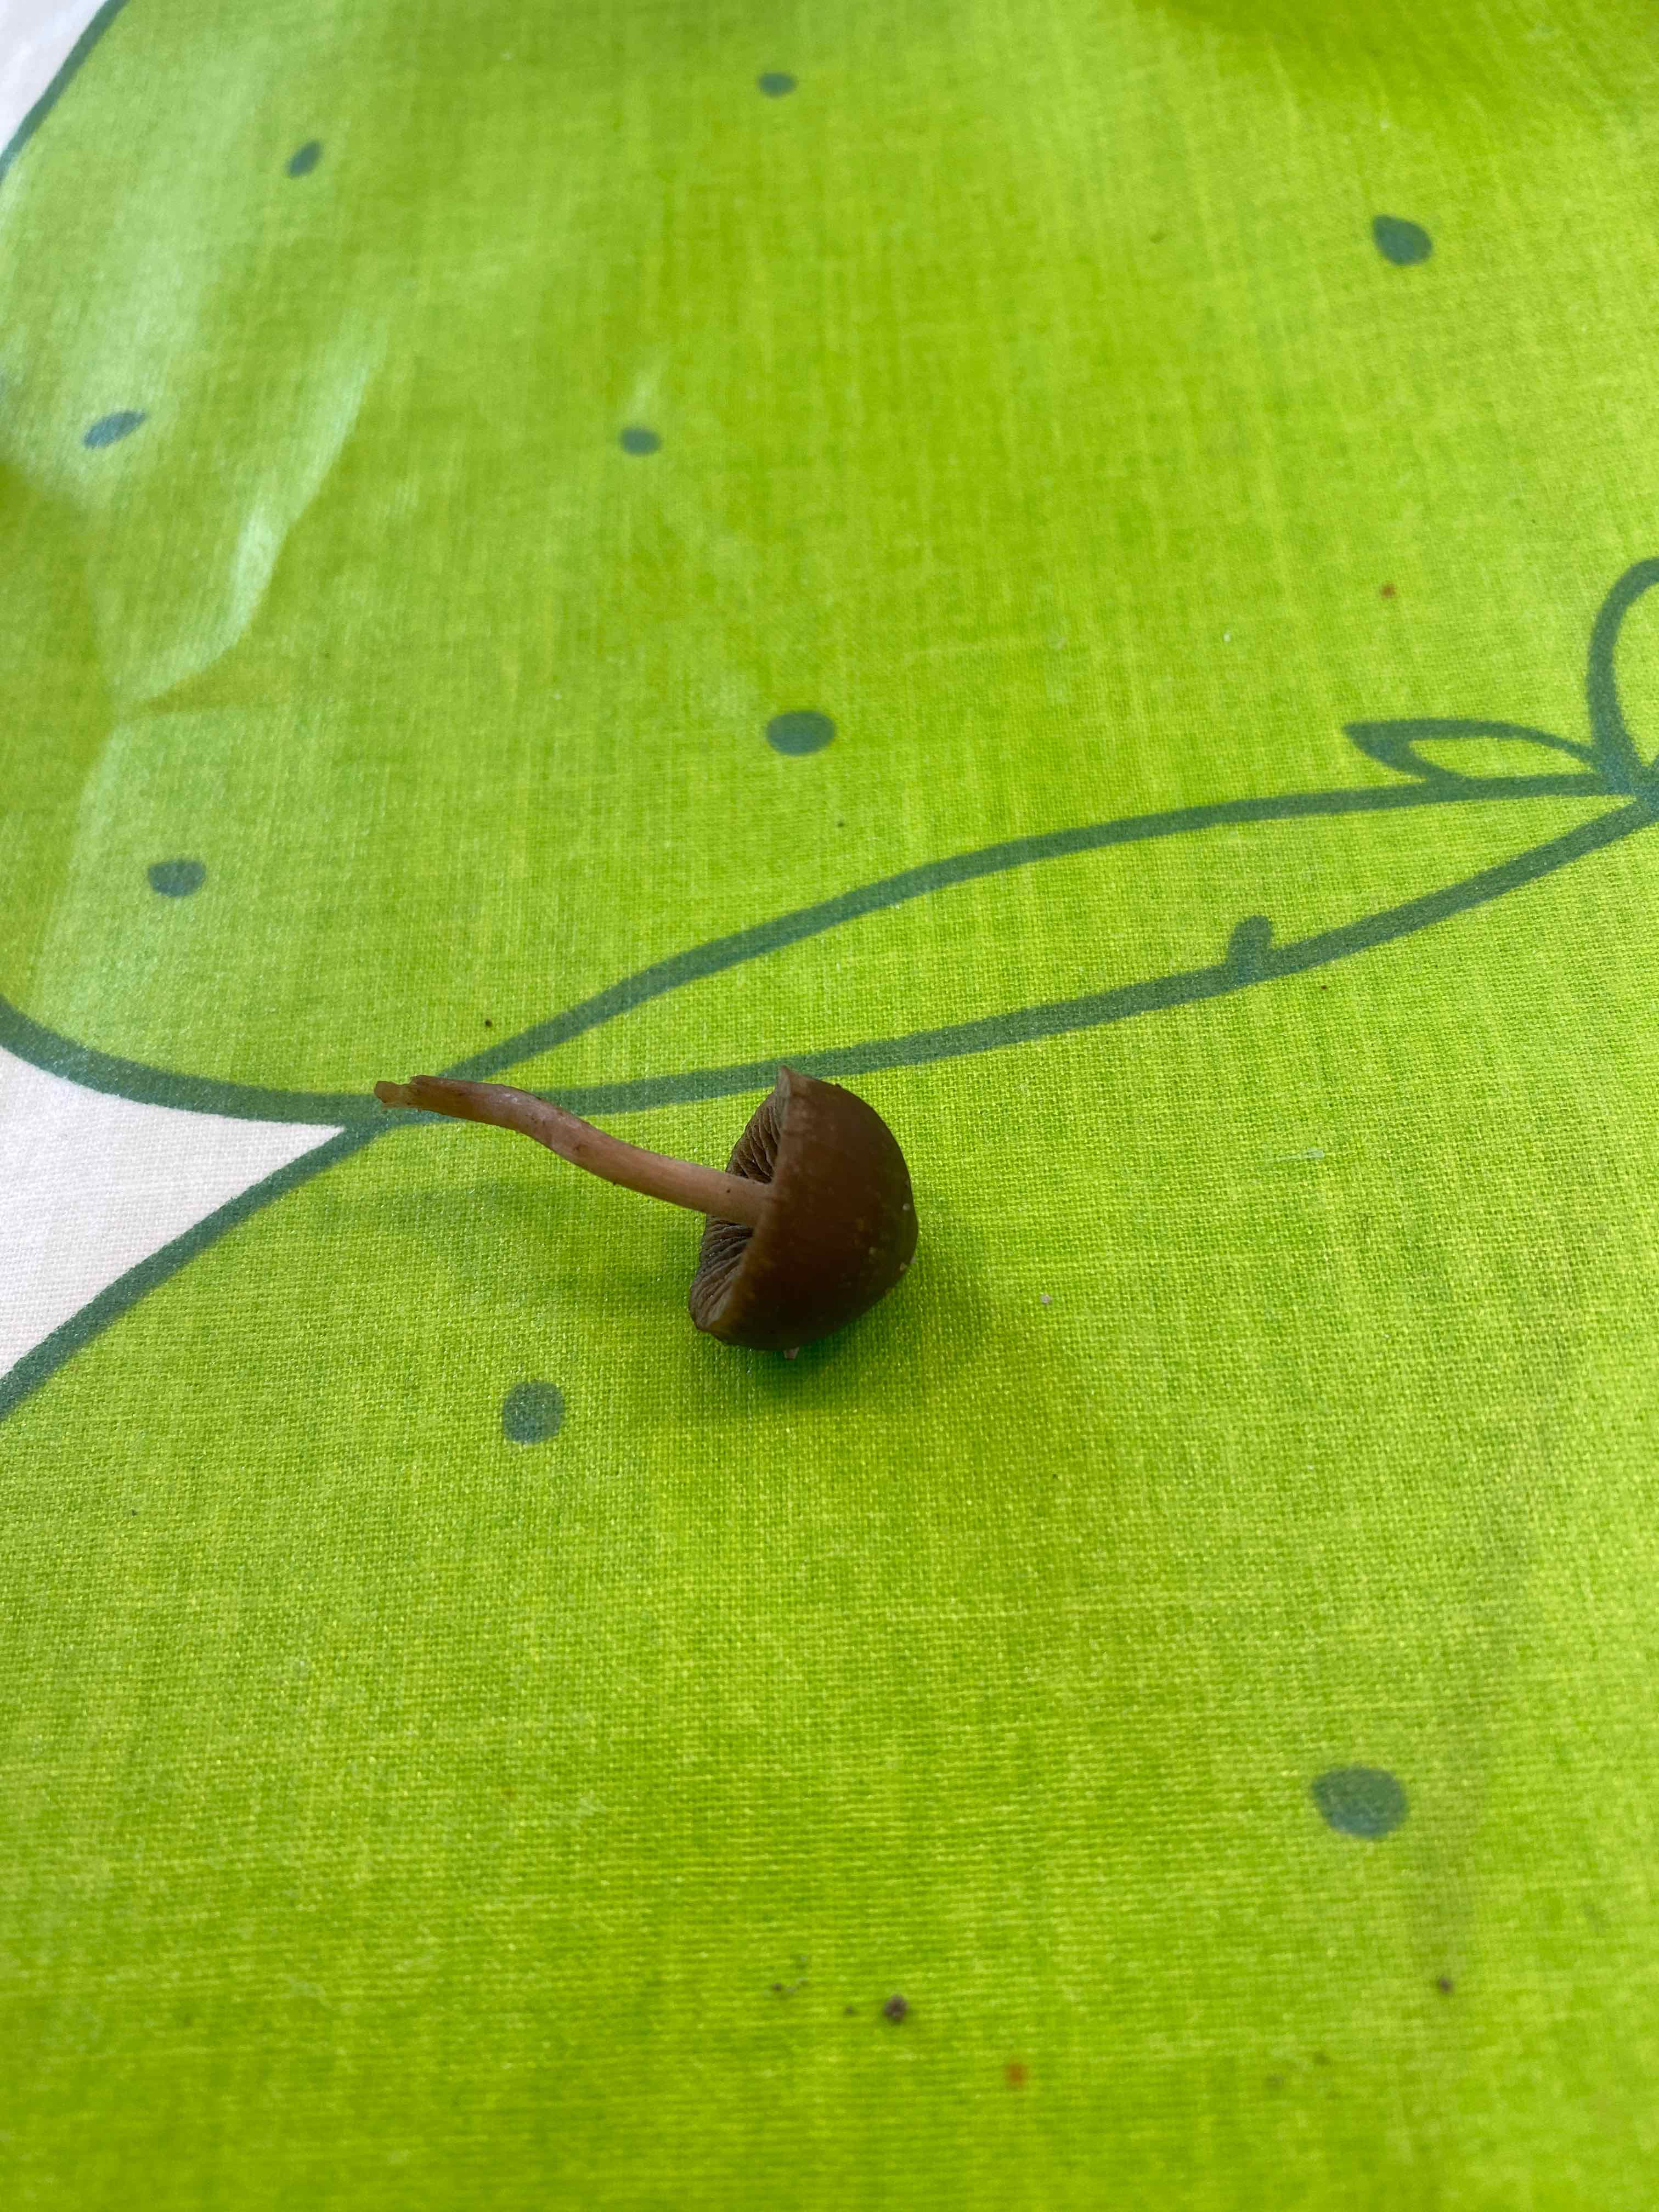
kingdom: Fungi
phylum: Basidiomycota
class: Agaricomycetes
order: Agaricales
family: Bolbitiaceae
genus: Panaeolina
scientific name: Panaeolina foenisecii
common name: høslætsvamp
